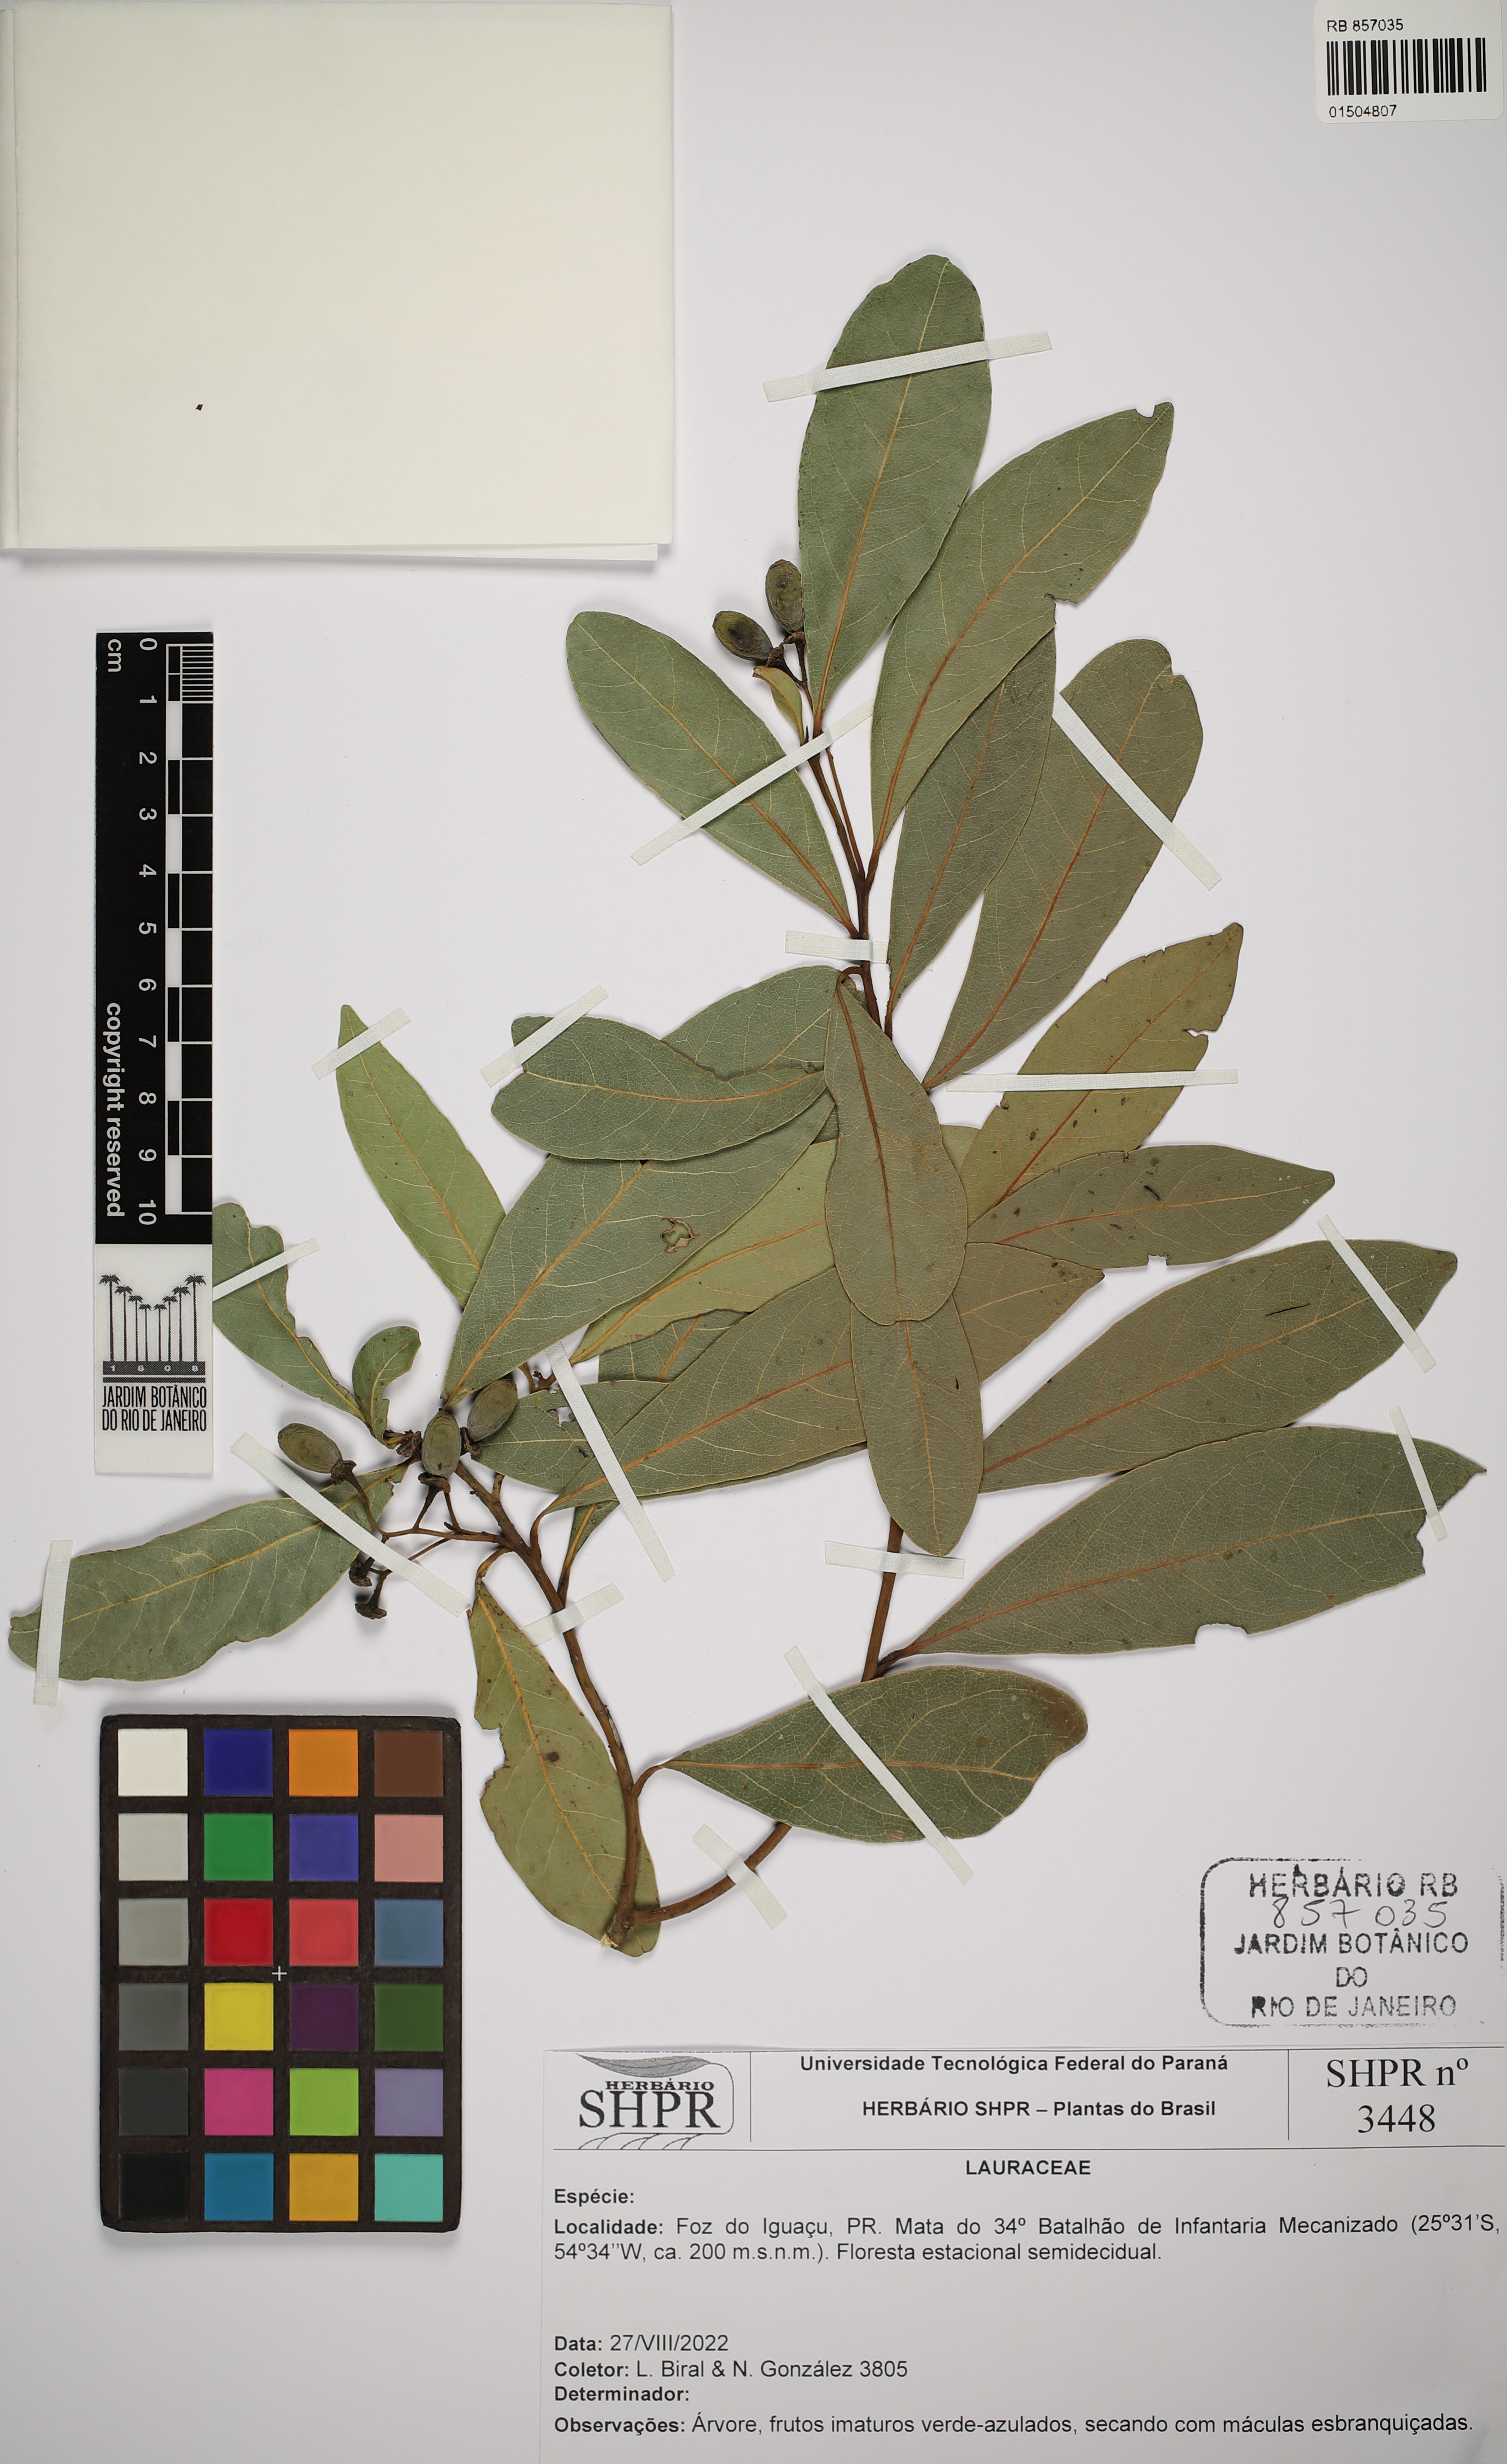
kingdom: Plantae
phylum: Tracheophyta
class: Magnoliopsida
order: Laurales
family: Lauraceae
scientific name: Lauraceae
